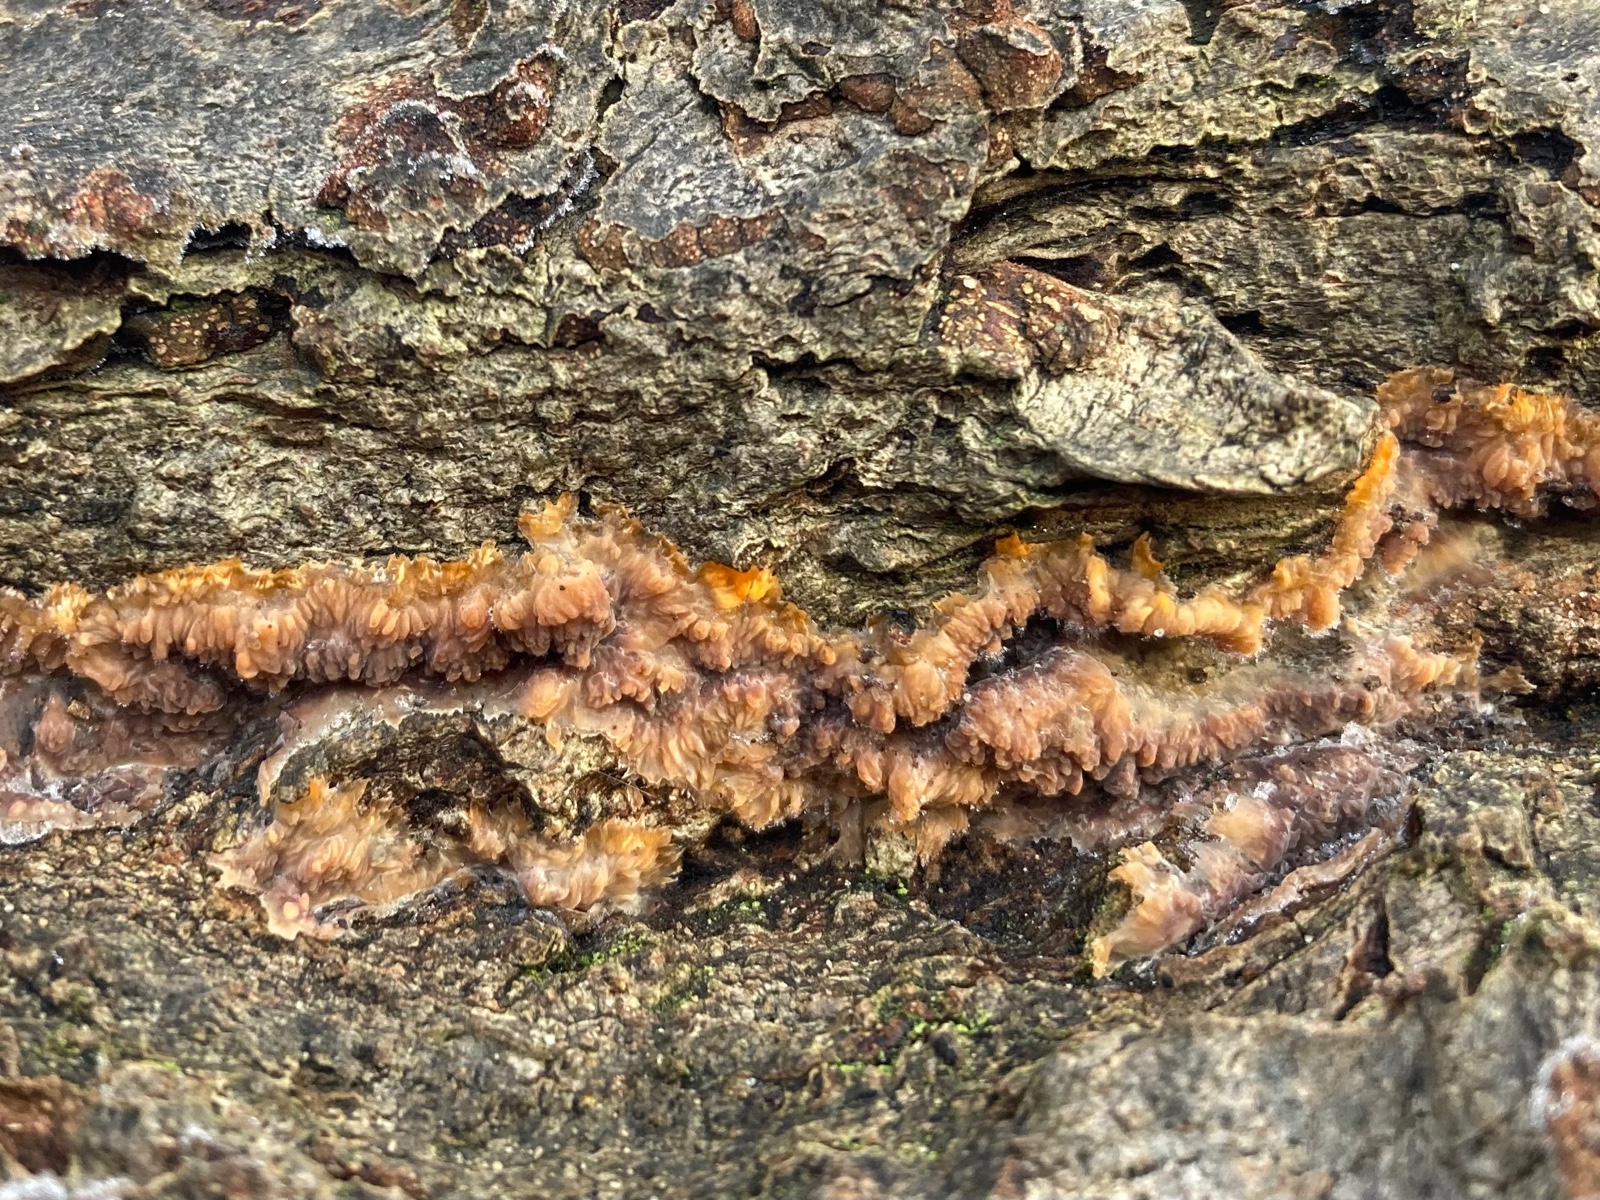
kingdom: Fungi
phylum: Basidiomycota
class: Agaricomycetes
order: Polyporales
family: Meruliaceae
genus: Phlebia
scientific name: Phlebia radiata
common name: stråle-åresvamp
